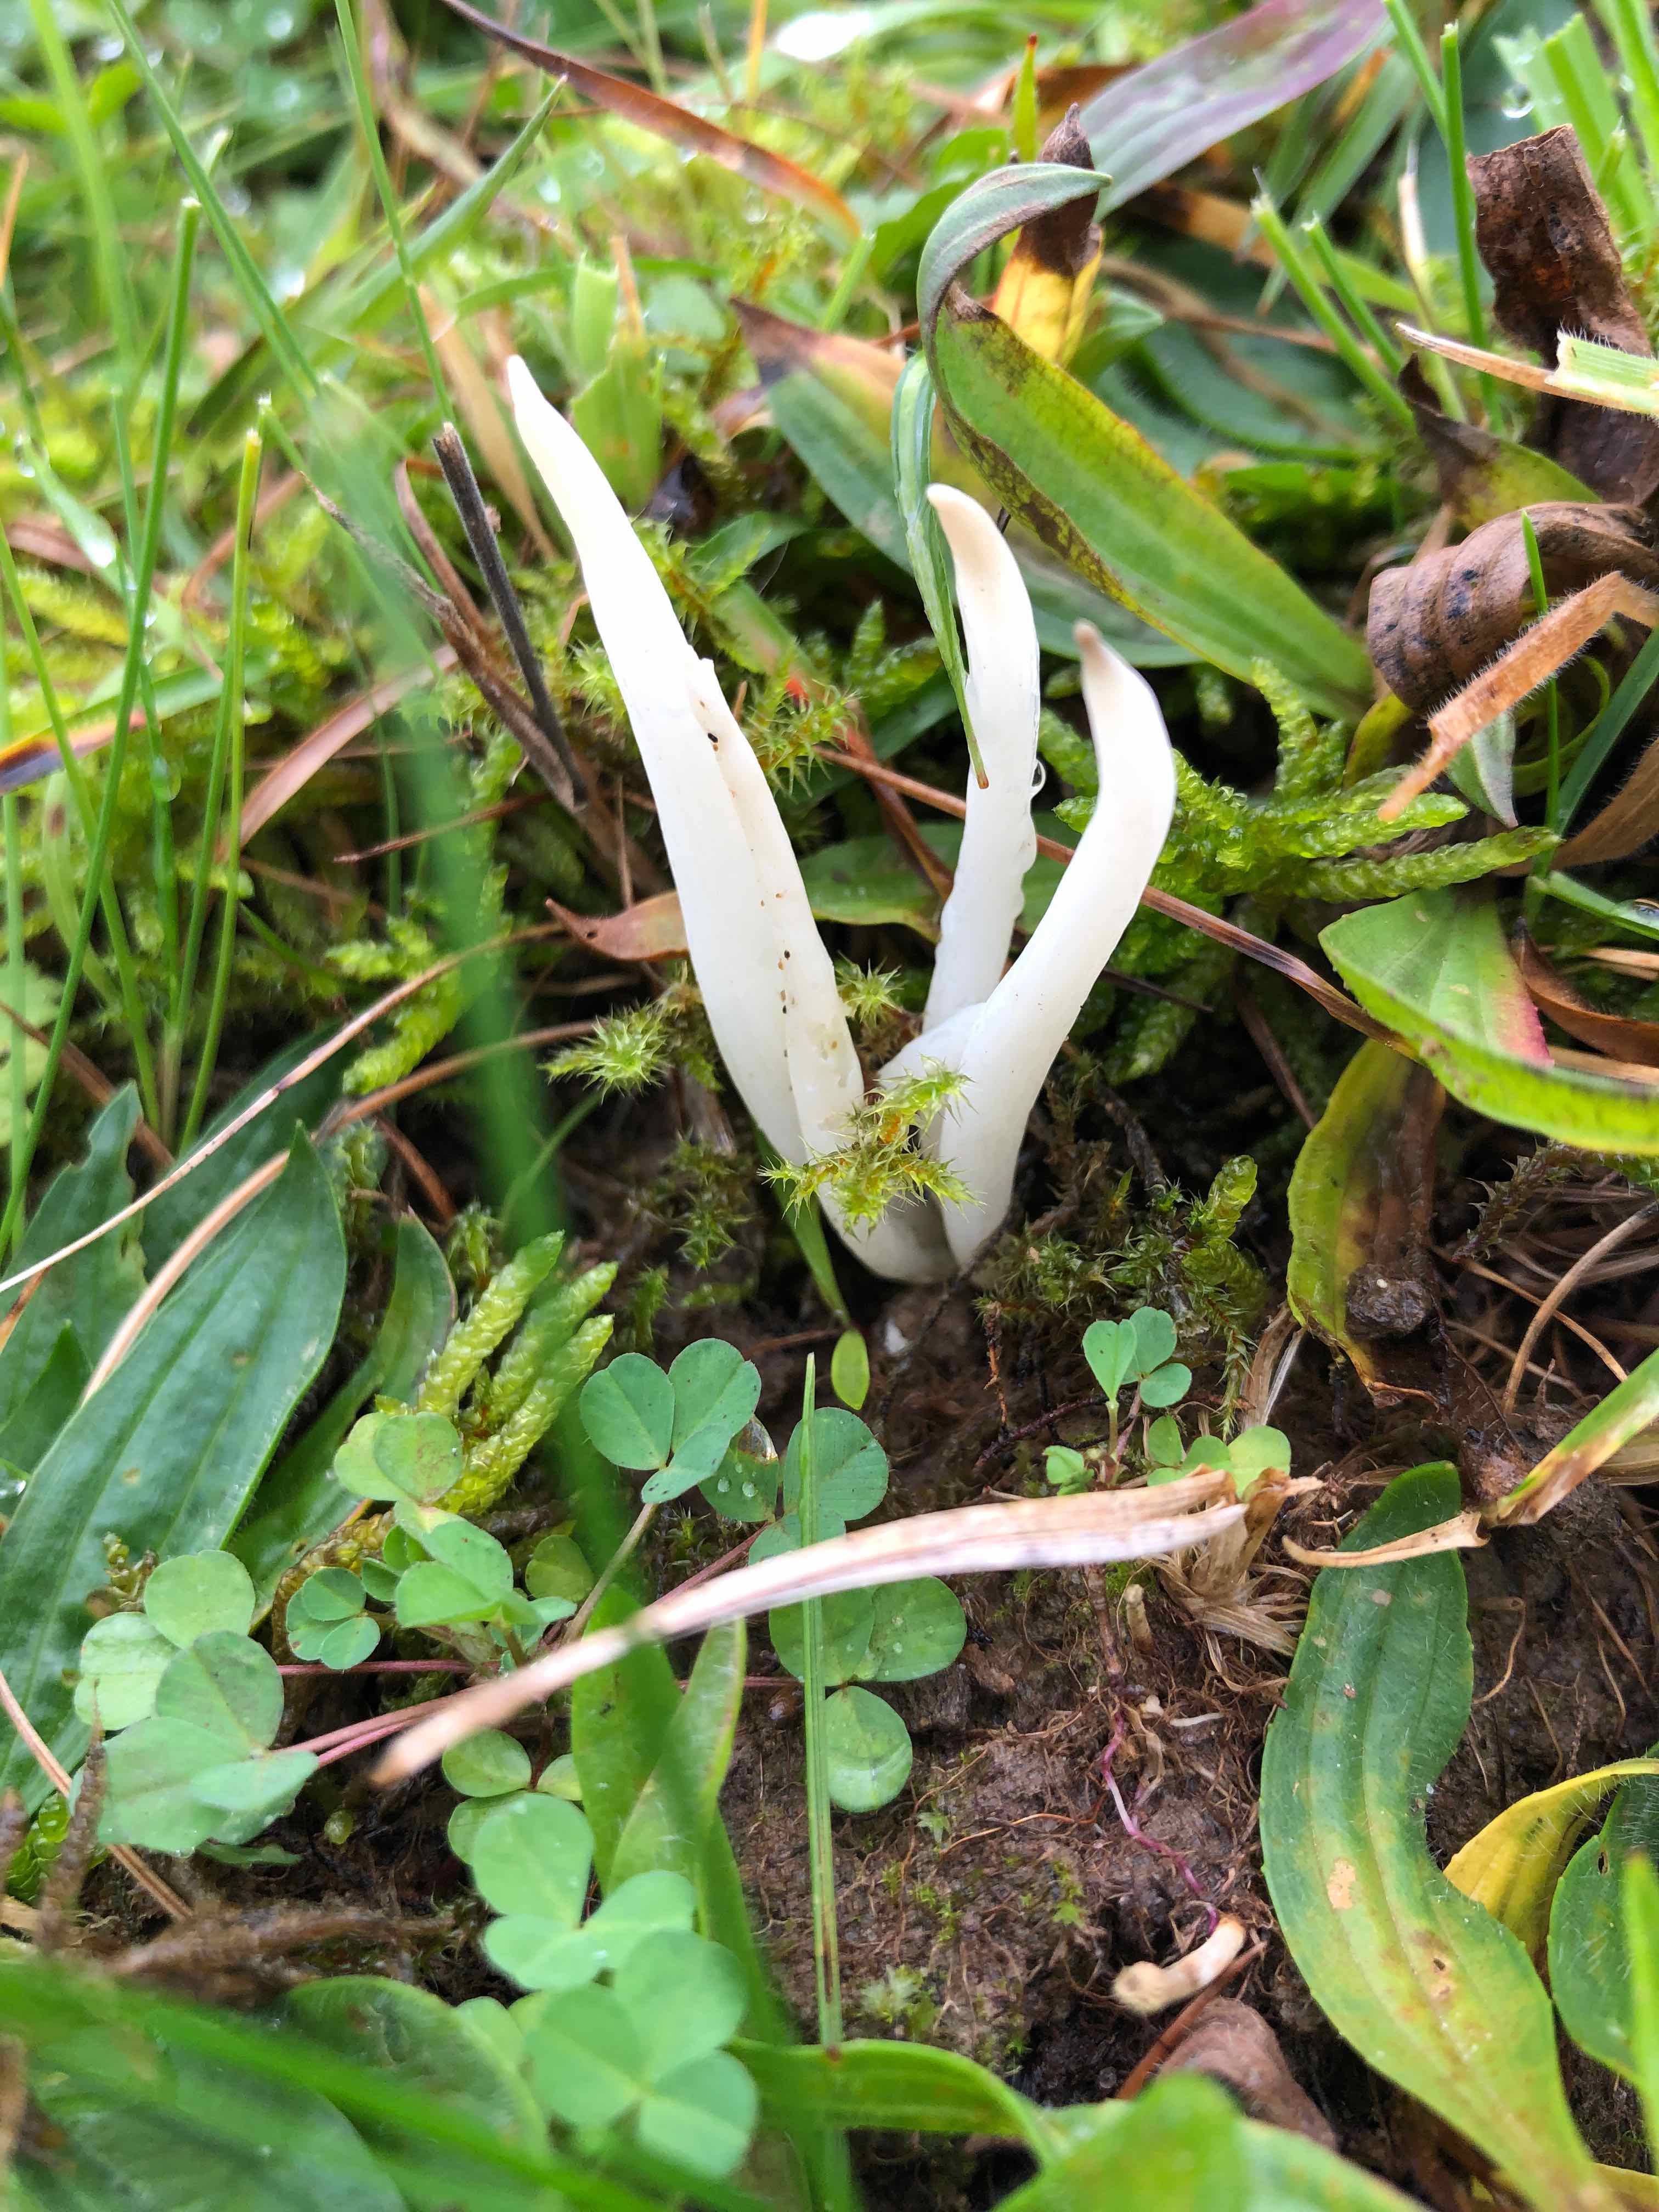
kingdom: Fungi
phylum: Basidiomycota
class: Agaricomycetes
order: Agaricales
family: Clavariaceae
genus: Clavaria
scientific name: Clavaria
